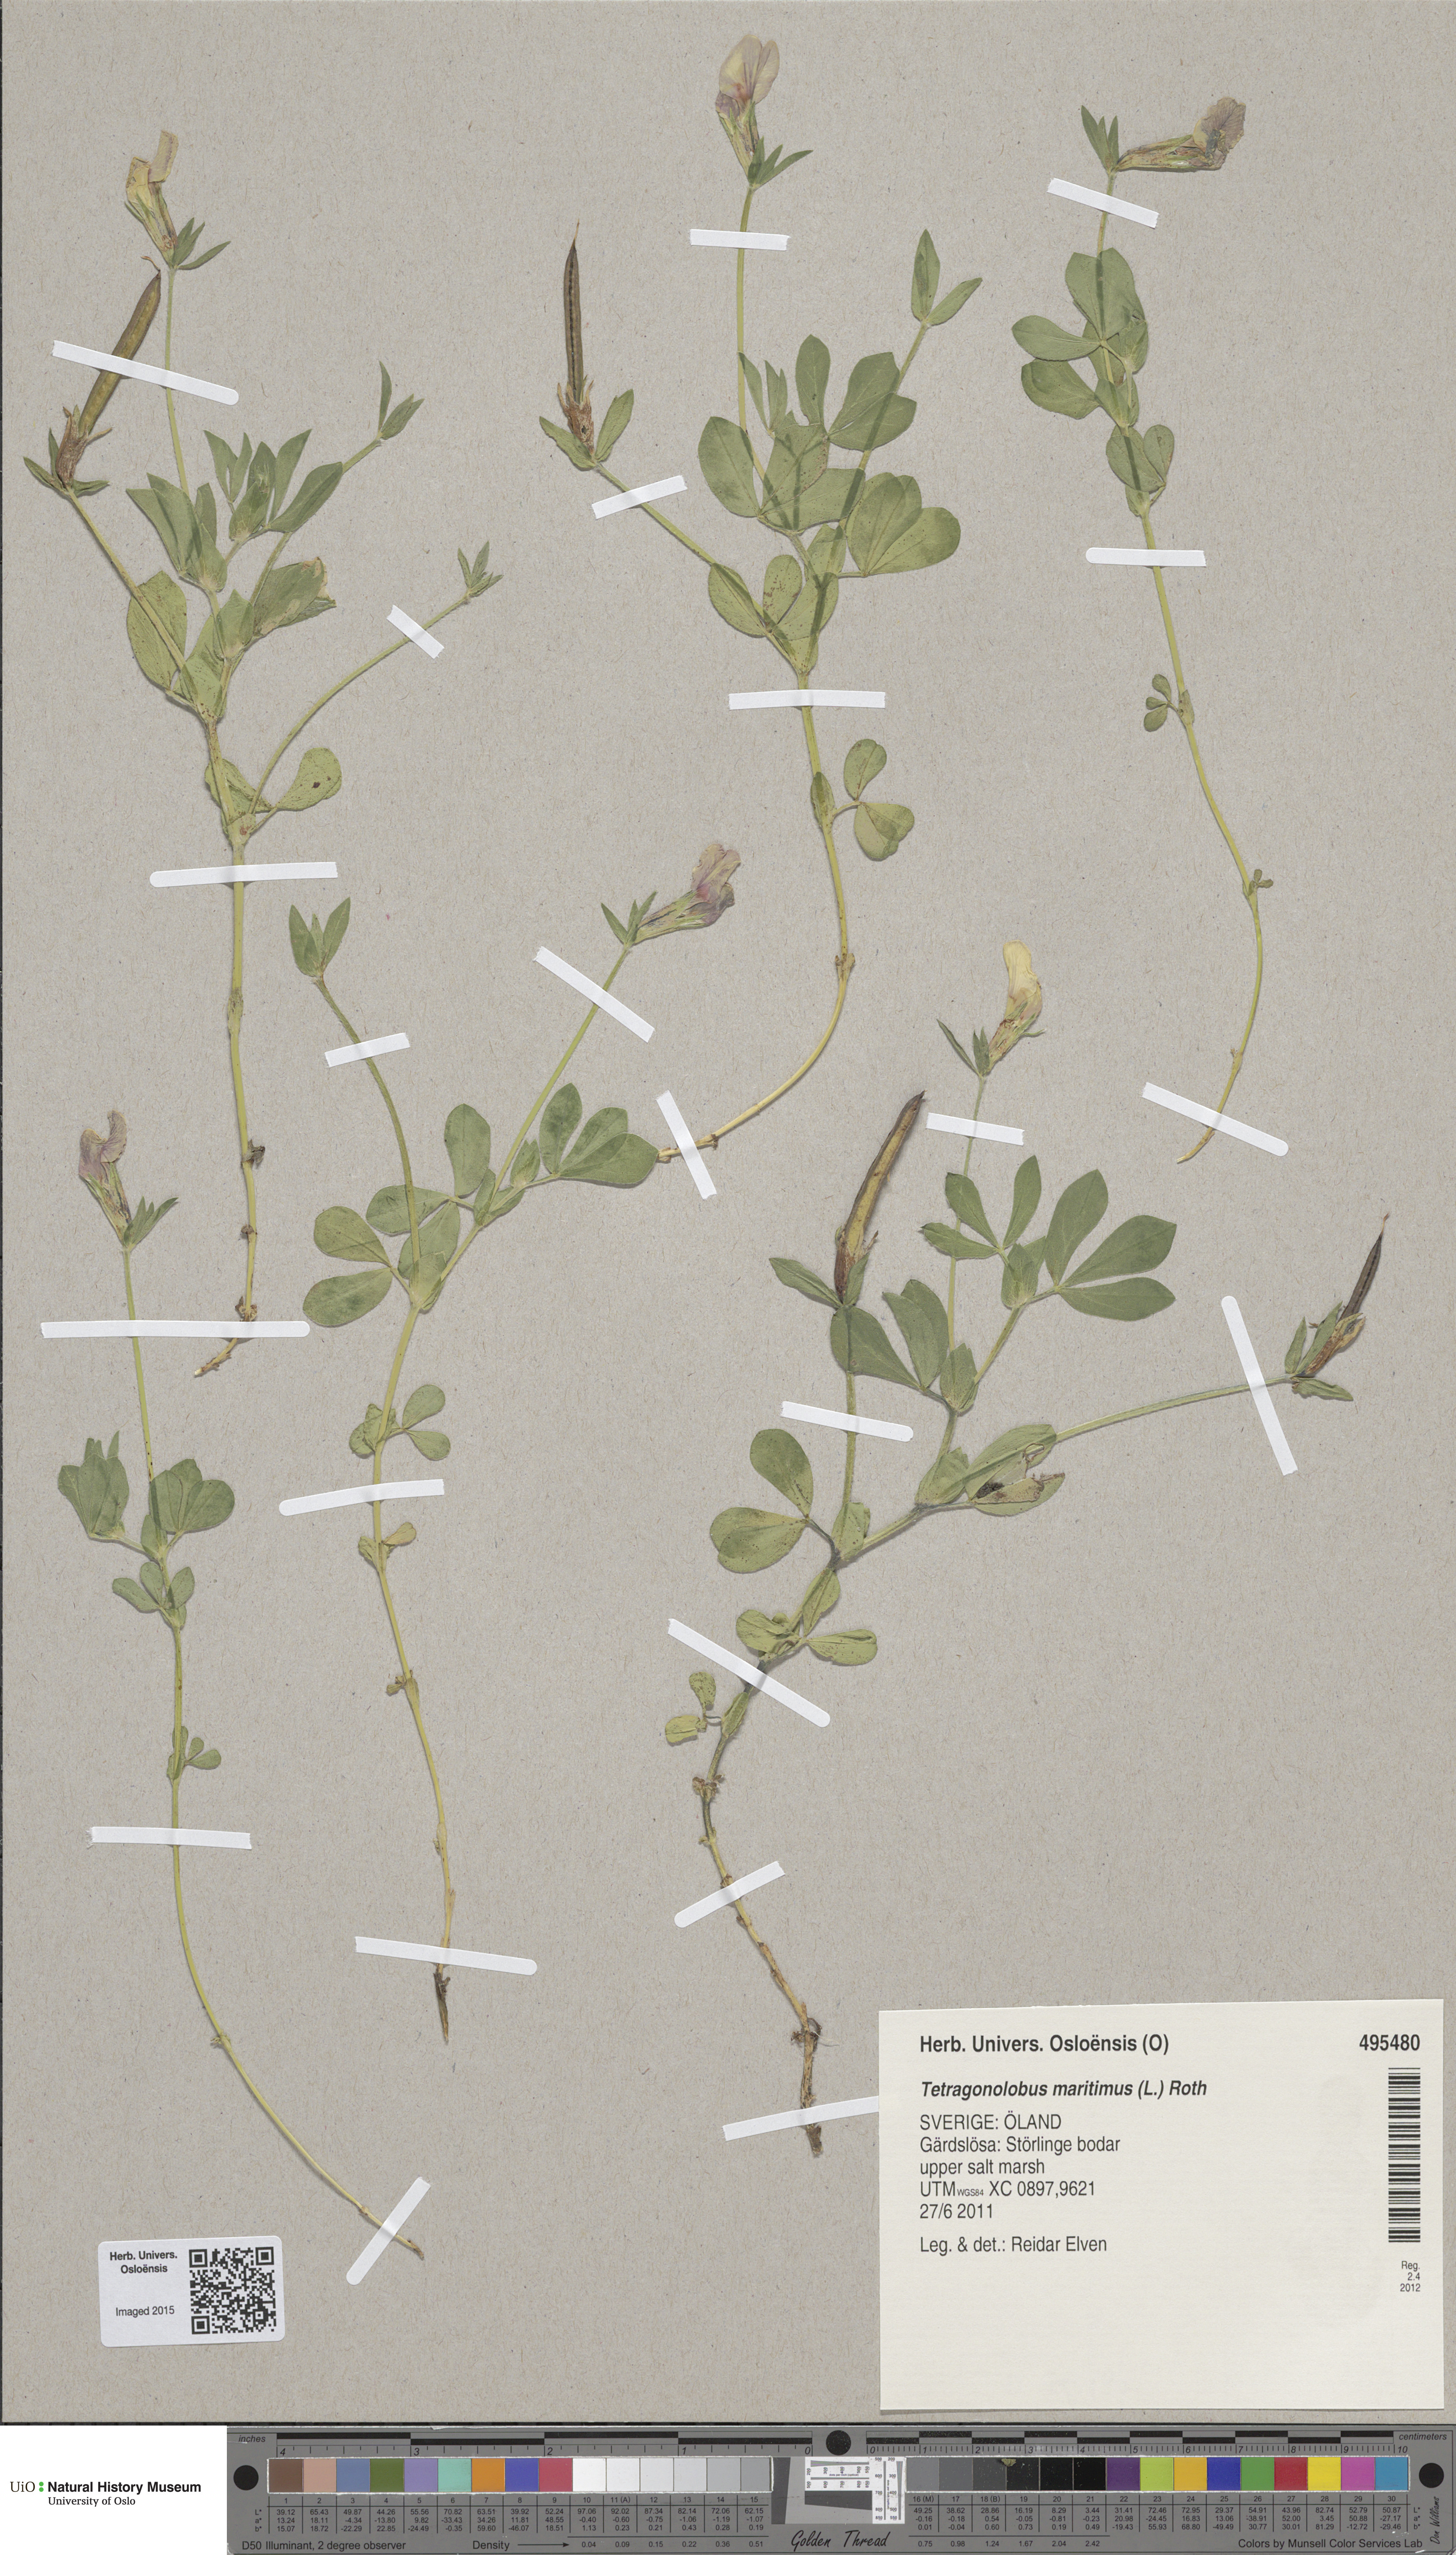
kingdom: Plantae
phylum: Tracheophyta
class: Magnoliopsida
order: Fabales
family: Fabaceae
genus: Lotus
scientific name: Lotus maritimus
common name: Dragon's-teeth
